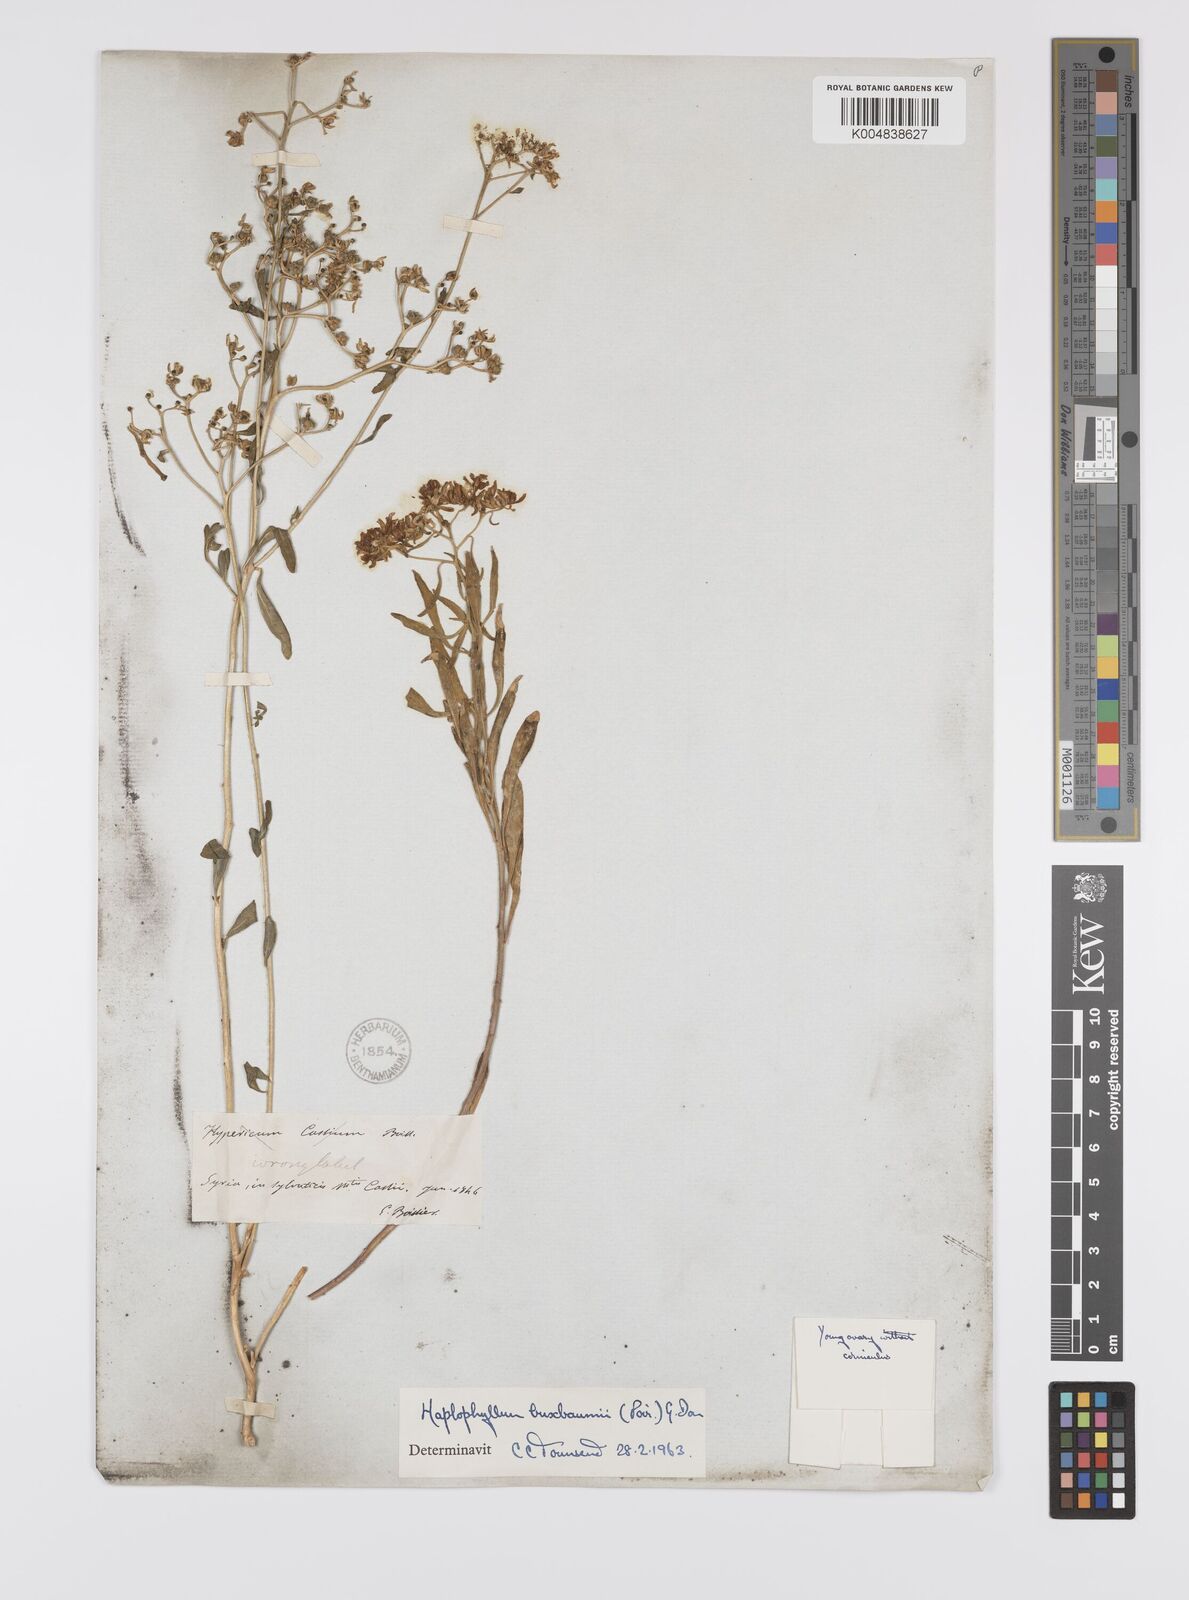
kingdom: Plantae
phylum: Tracheophyta
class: Magnoliopsida
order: Sapindales
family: Rutaceae
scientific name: Rutaceae
